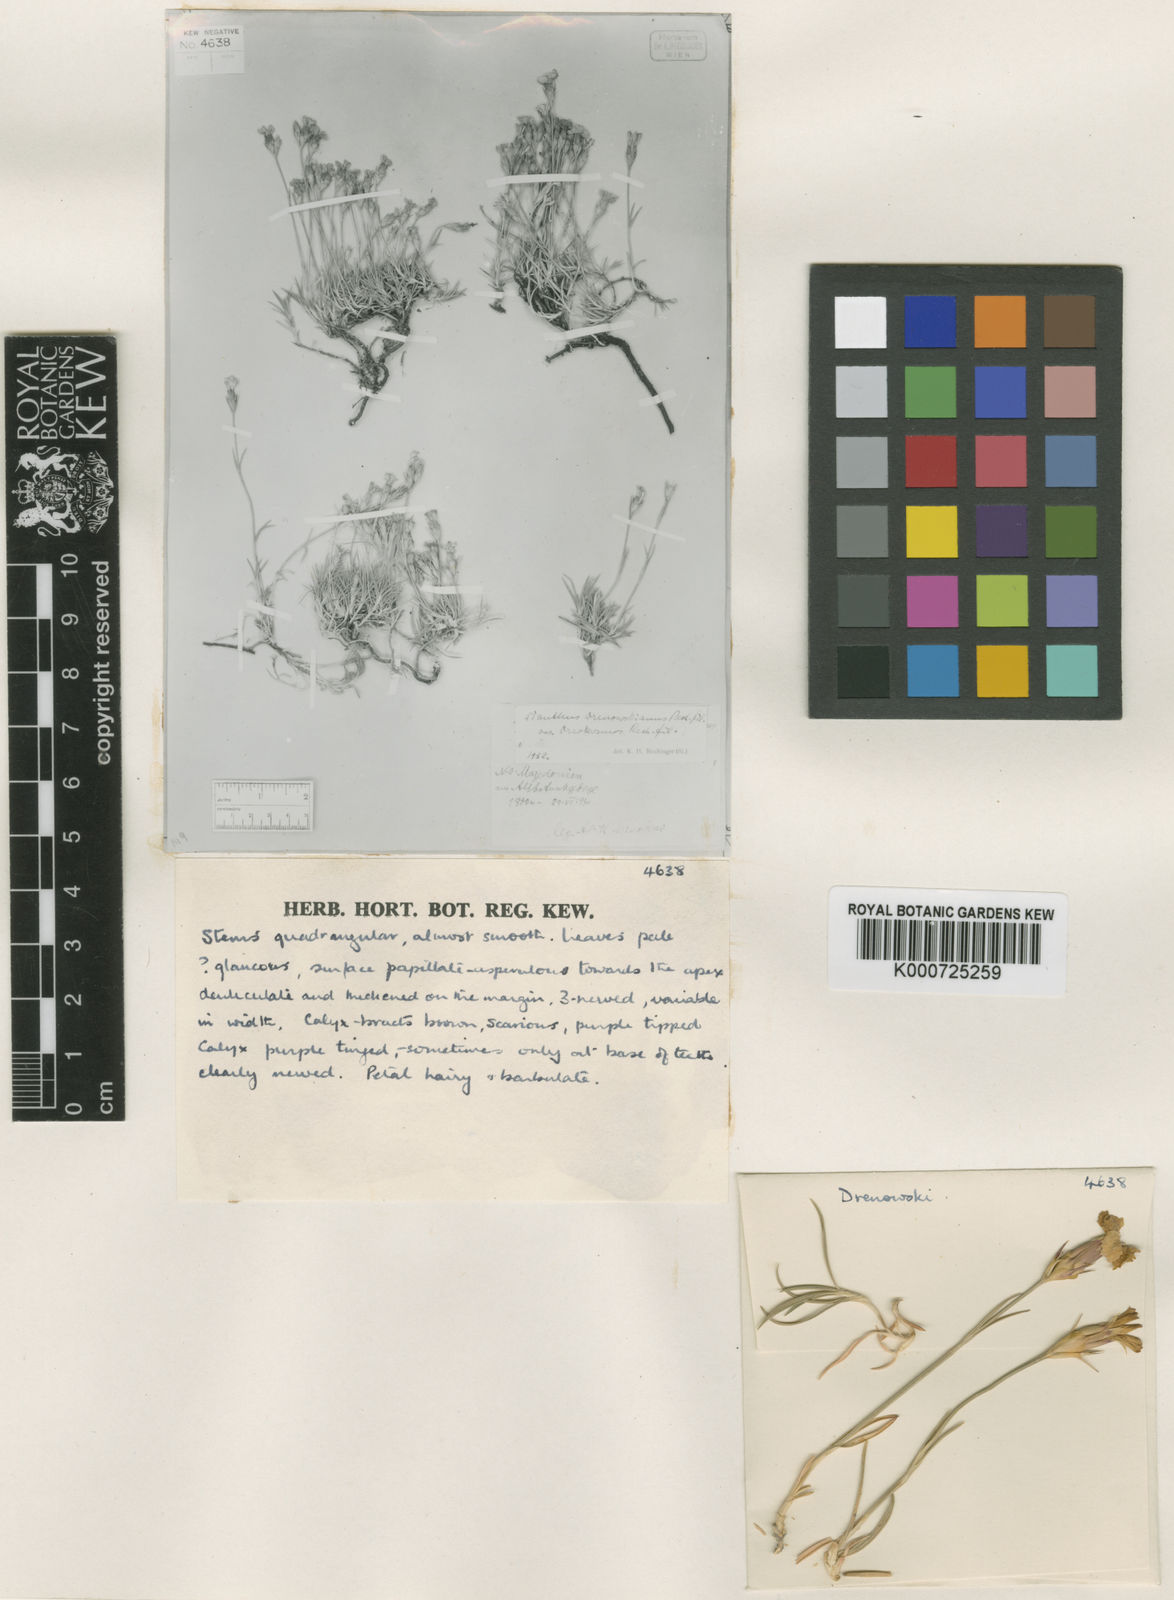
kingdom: Plantae
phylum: Tracheophyta
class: Magnoliopsida
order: Caryophyllales
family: Caryophyllaceae
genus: Dianthus
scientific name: Dianthus gracilis
